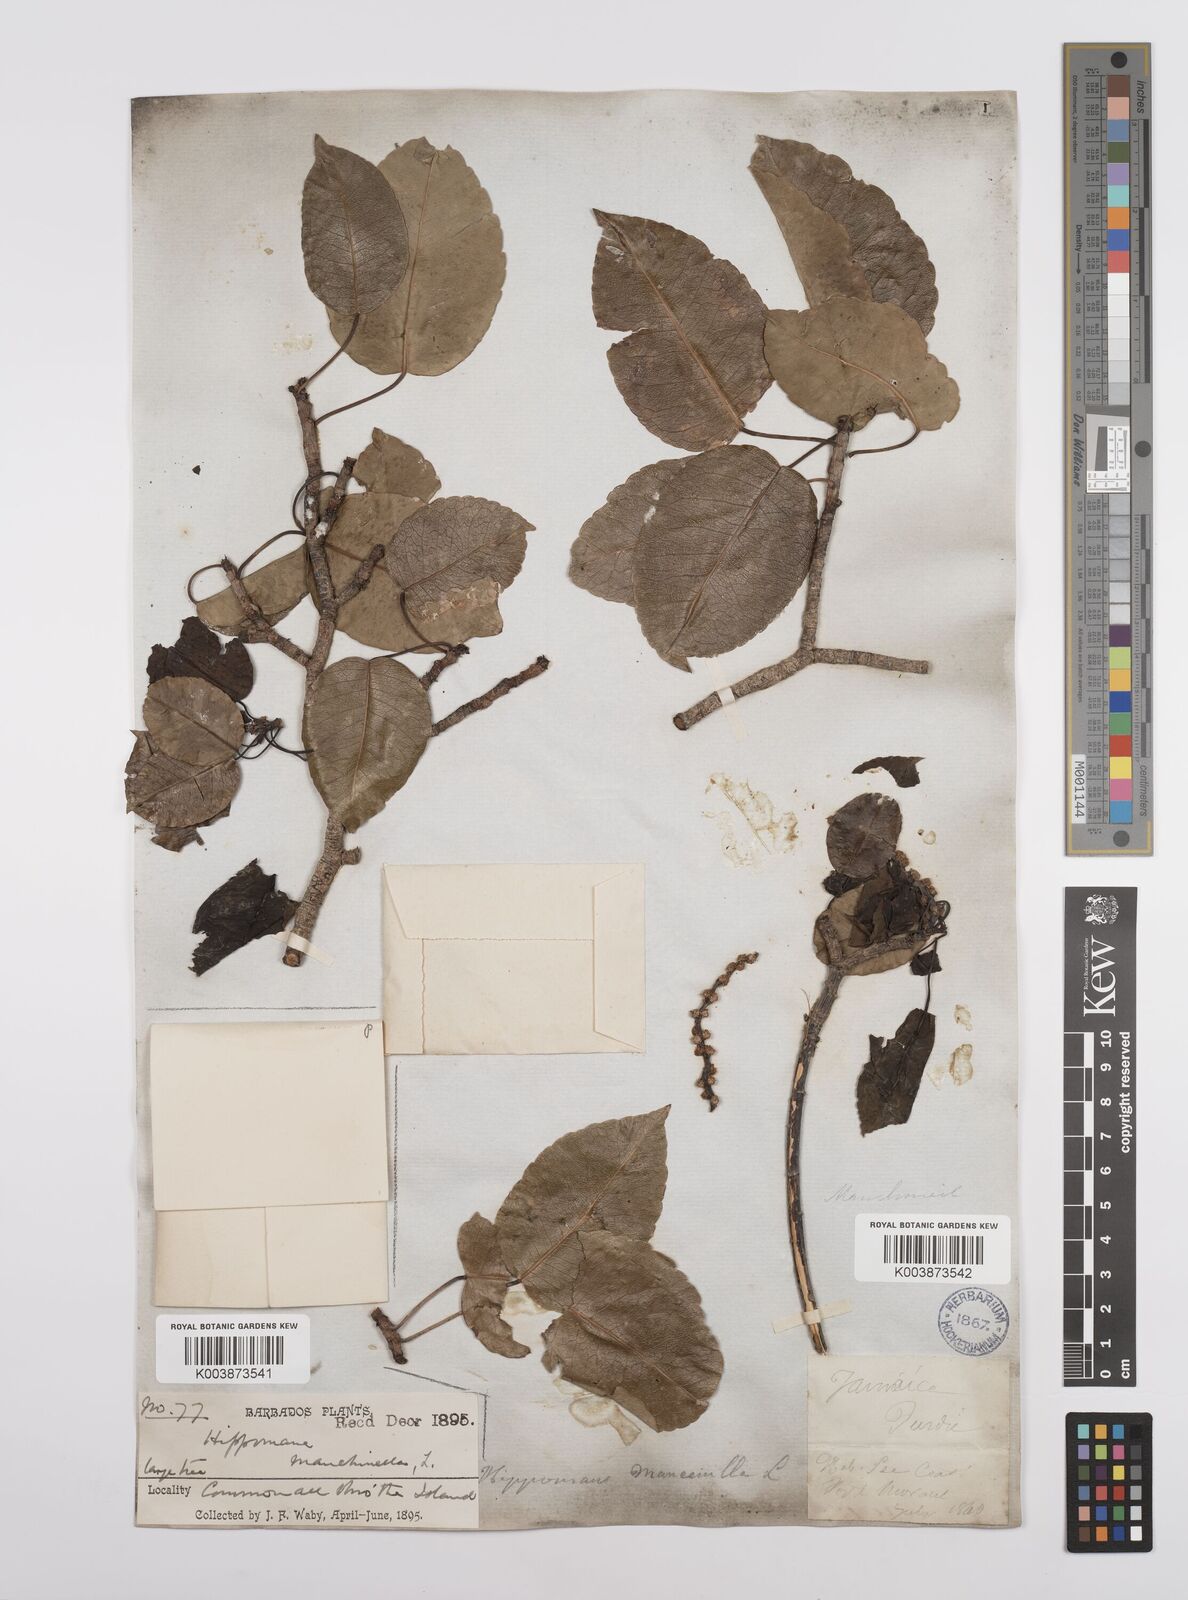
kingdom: Plantae
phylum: Tracheophyta
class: Magnoliopsida
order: Malpighiales
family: Euphorbiaceae
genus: Hippomane
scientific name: Hippomane mancinella
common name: Manchineel
